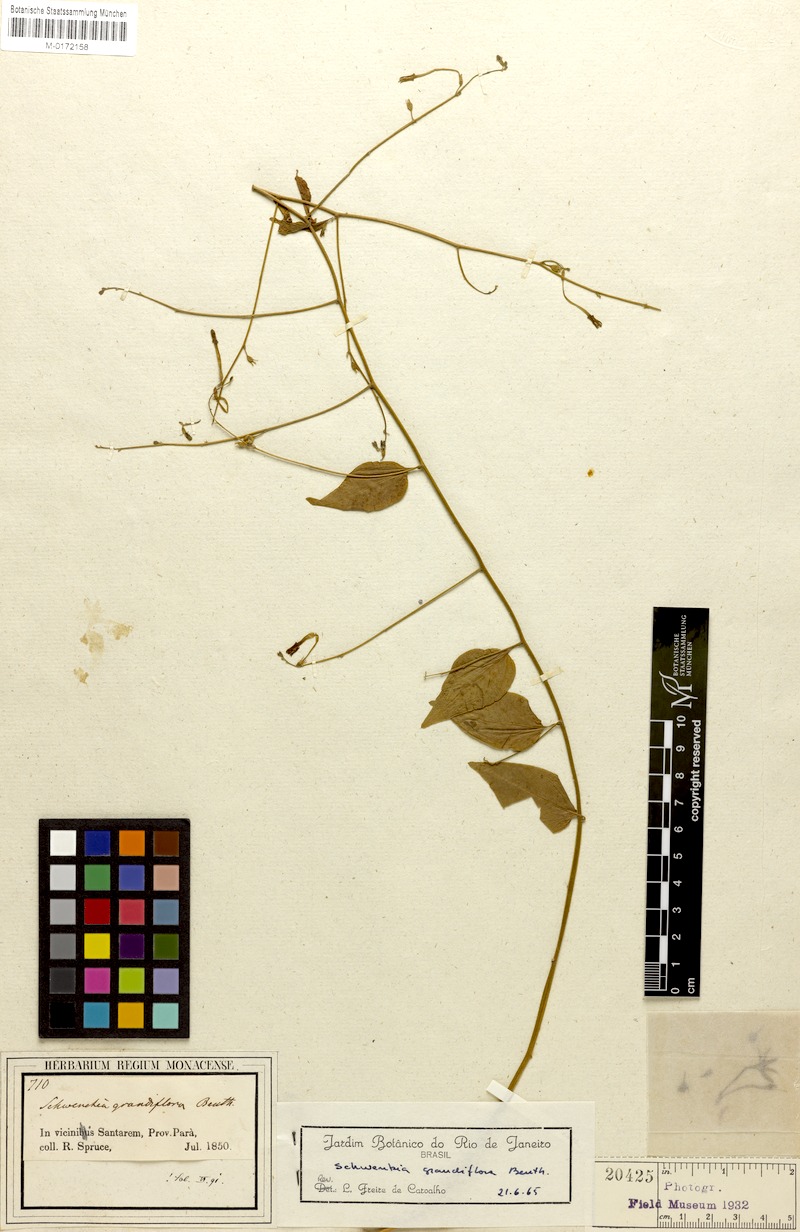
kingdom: Plantae
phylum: Tracheophyta
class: Magnoliopsida
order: Solanales
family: Solanaceae
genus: Schwenckia
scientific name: Schwenckia grandiflora
